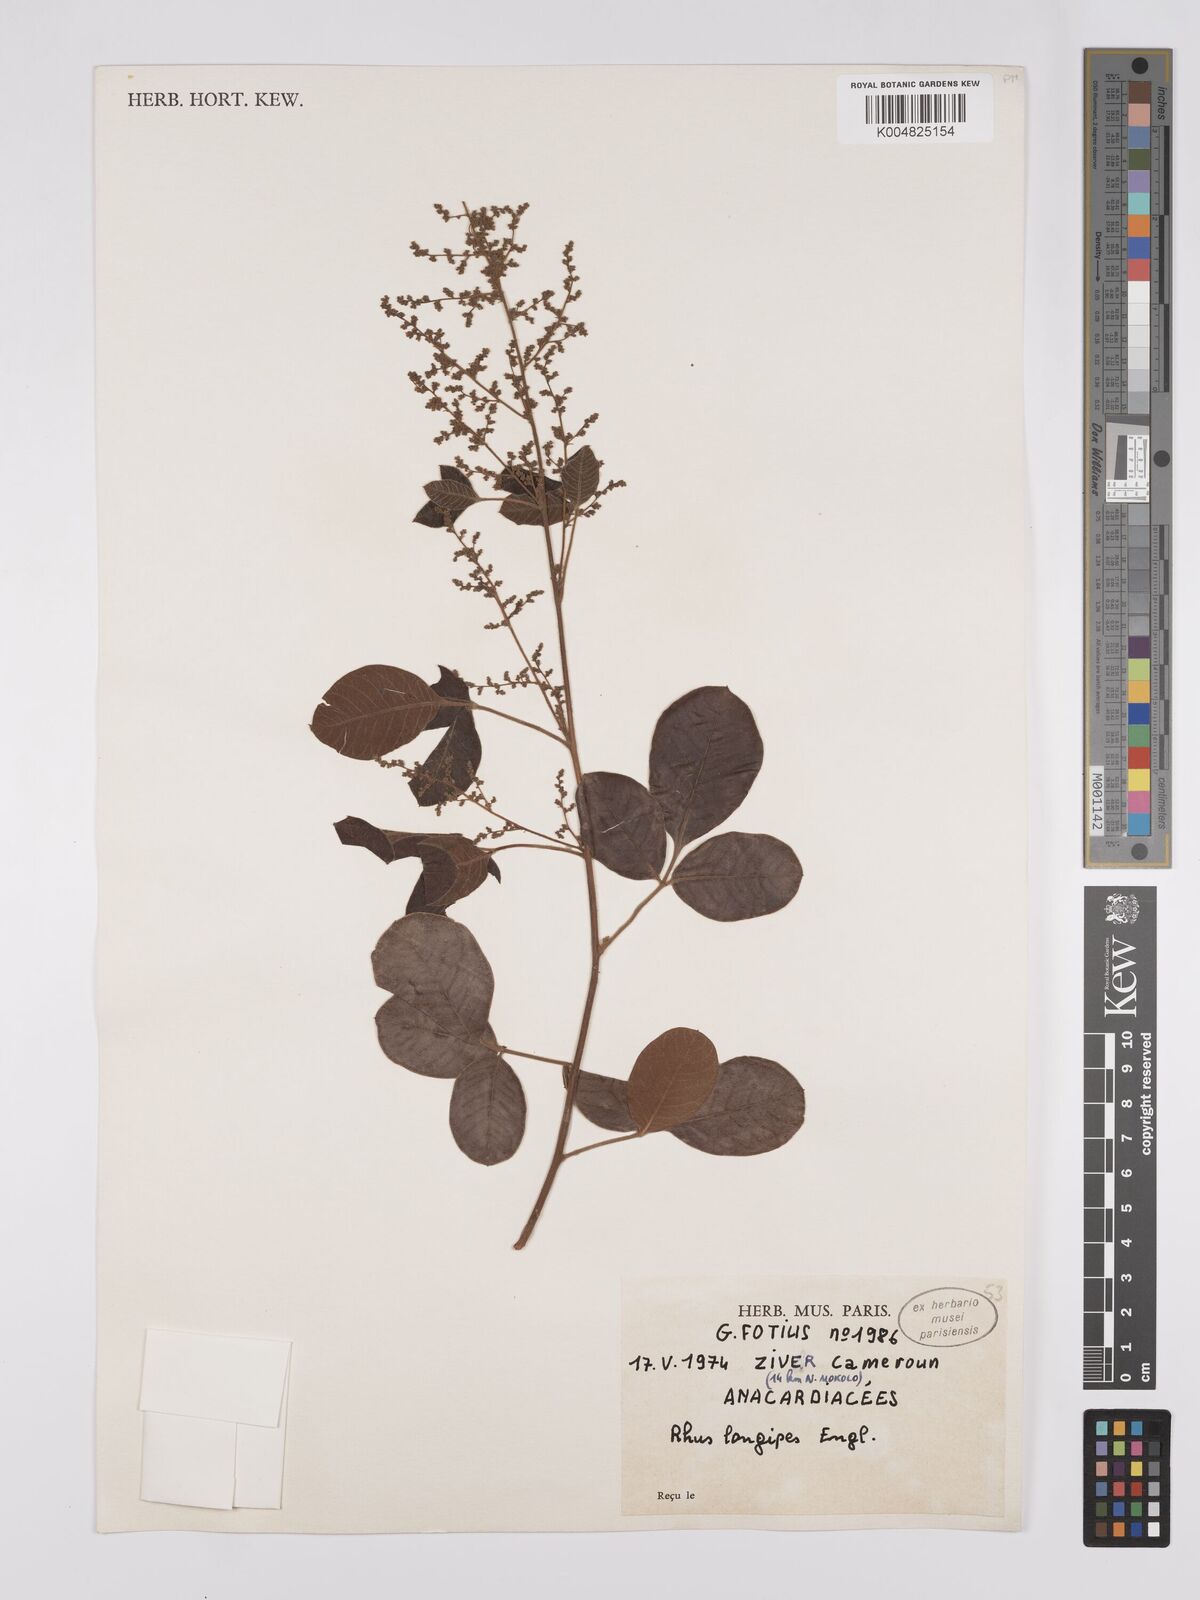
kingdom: Plantae
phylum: Tracheophyta
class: Magnoliopsida
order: Sapindales
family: Anacardiaceae
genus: Searsia
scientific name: Searsia longipes
